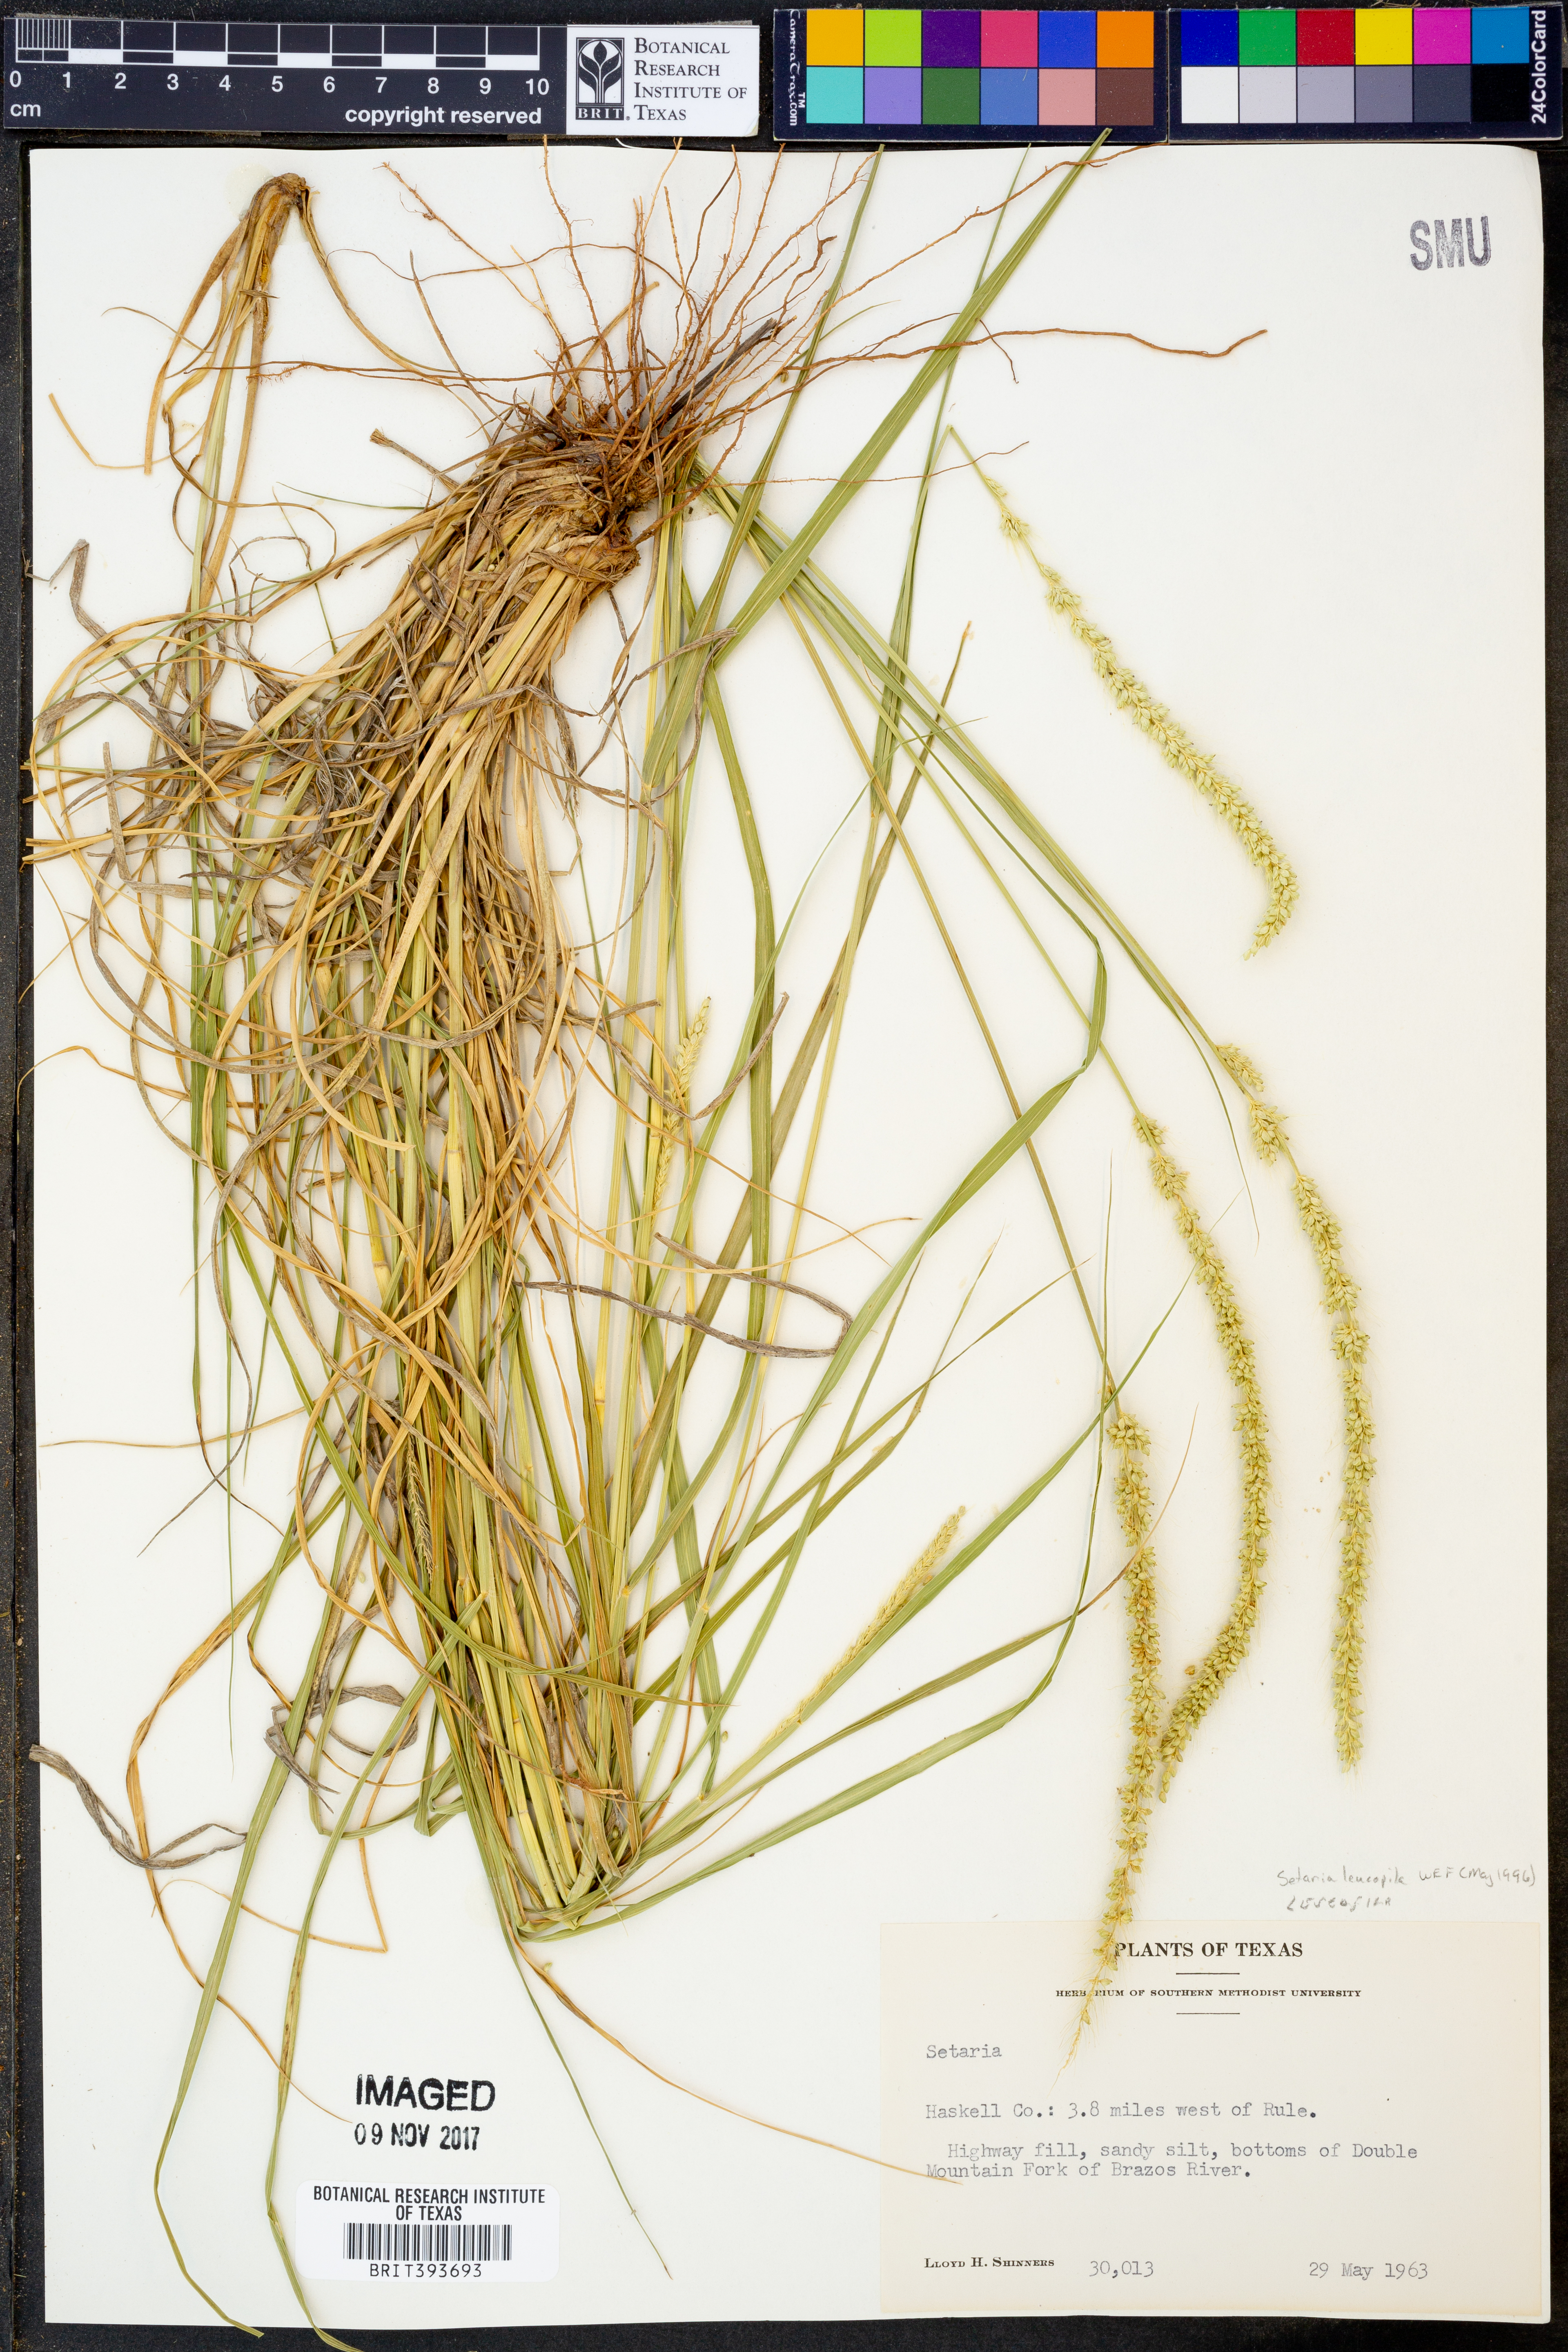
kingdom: Plantae
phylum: Tracheophyta
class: Liliopsida
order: Poales
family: Poaceae
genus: Setaria
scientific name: Setaria leucopila
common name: Plains bristle grass
